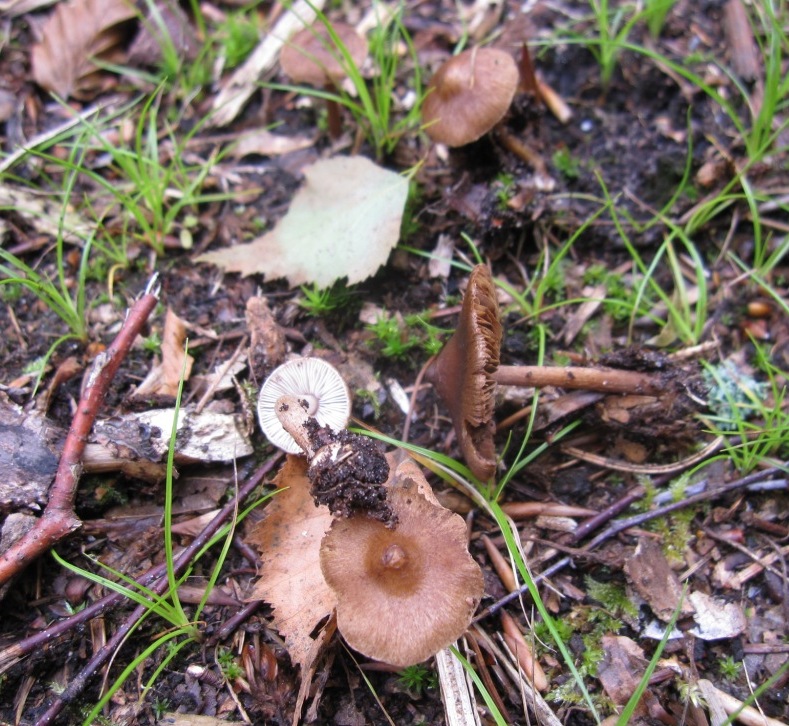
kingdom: Fungi
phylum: Basidiomycota
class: Agaricomycetes
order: Agaricales
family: Inocybaceae
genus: Inocybe
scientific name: Inocybe napipes
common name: roeknoldet trævlhat
